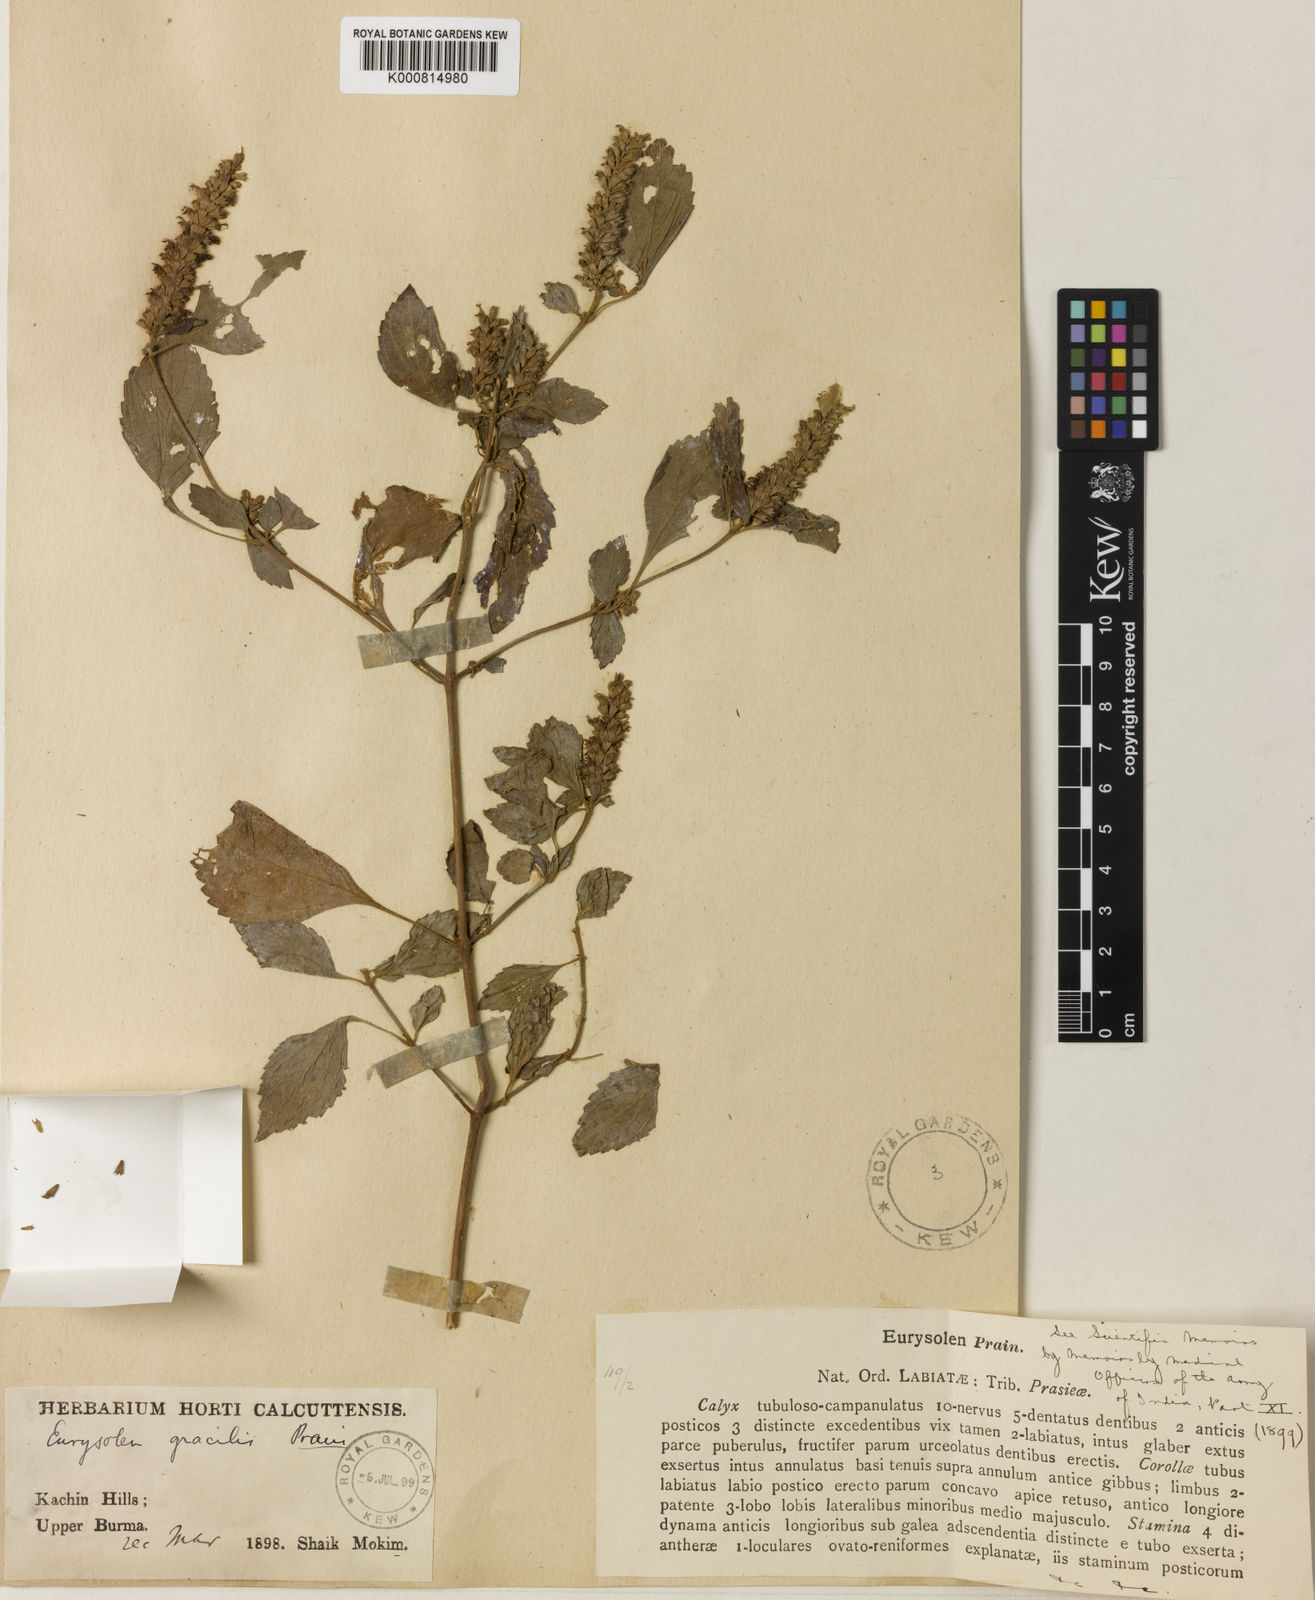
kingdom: Plantae
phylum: Tracheophyta
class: Magnoliopsida
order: Lamiales
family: Lamiaceae
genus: Eurysolen
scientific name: Eurysolen gracilis
